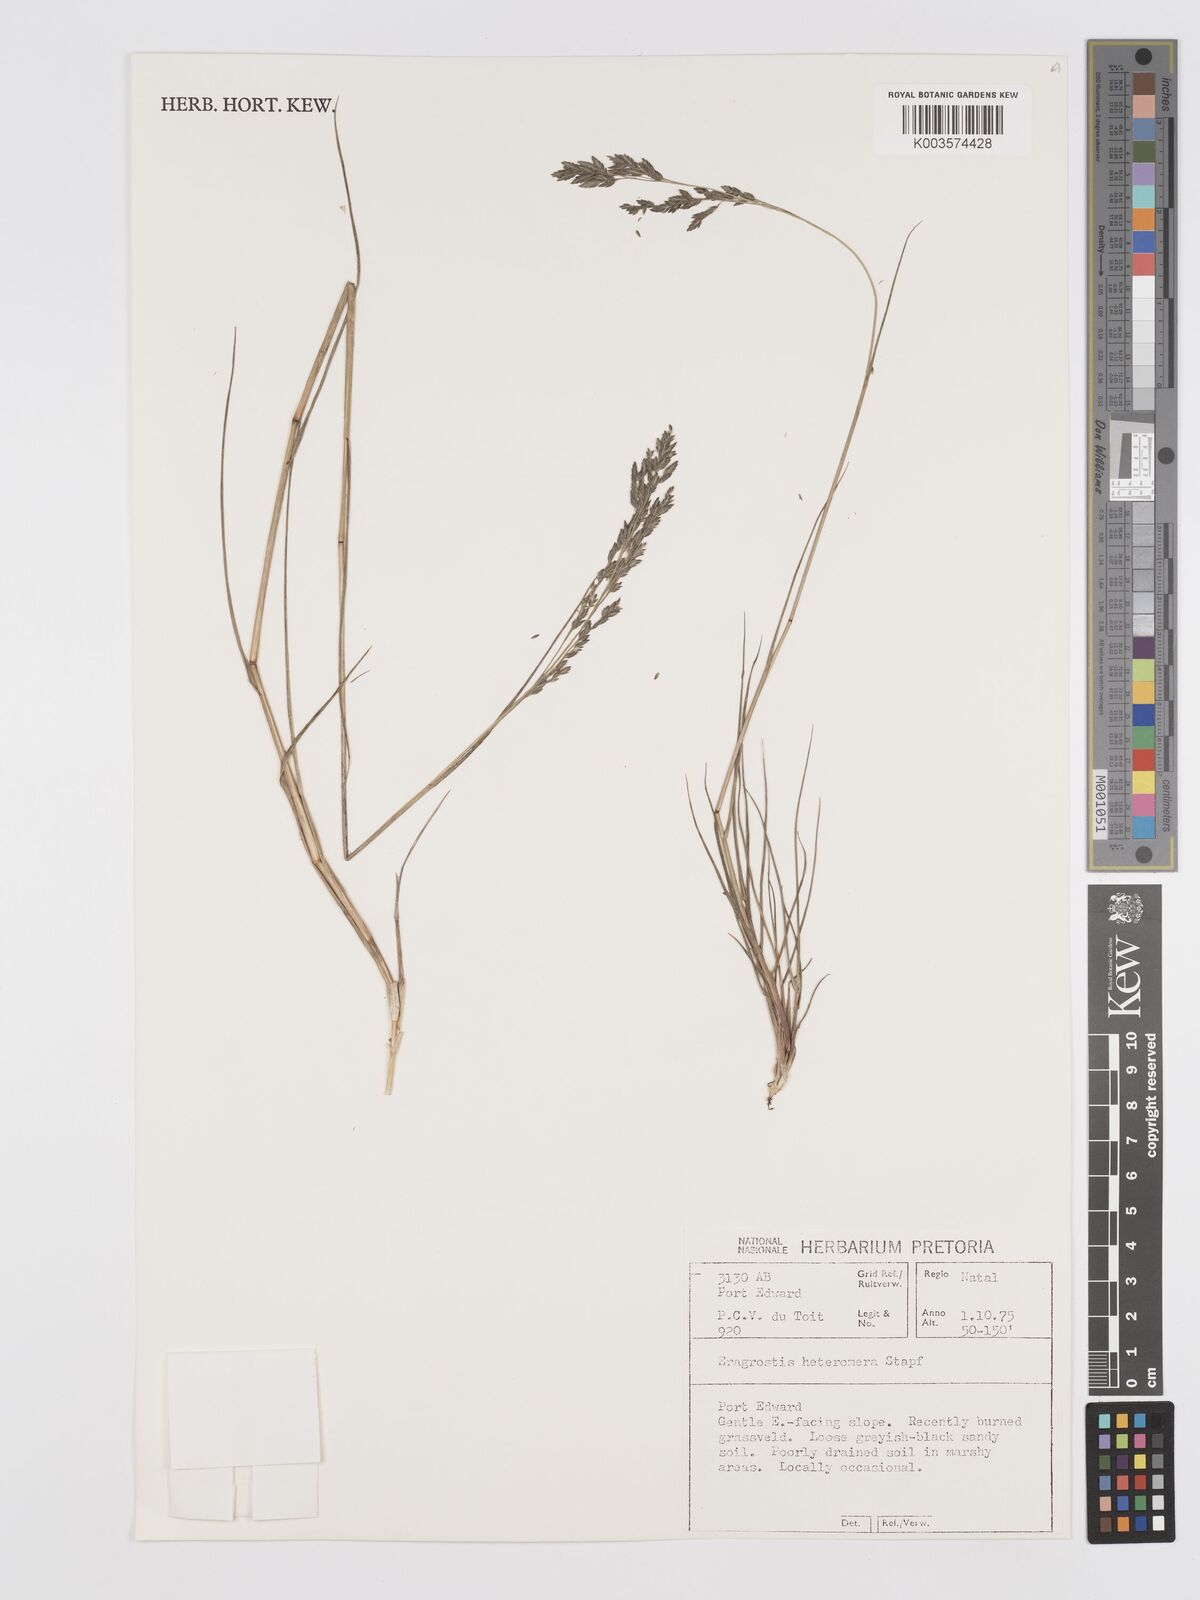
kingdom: Plantae
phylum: Tracheophyta
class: Liliopsida
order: Poales
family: Poaceae
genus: Eragrostis
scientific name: Eragrostis heteromera
